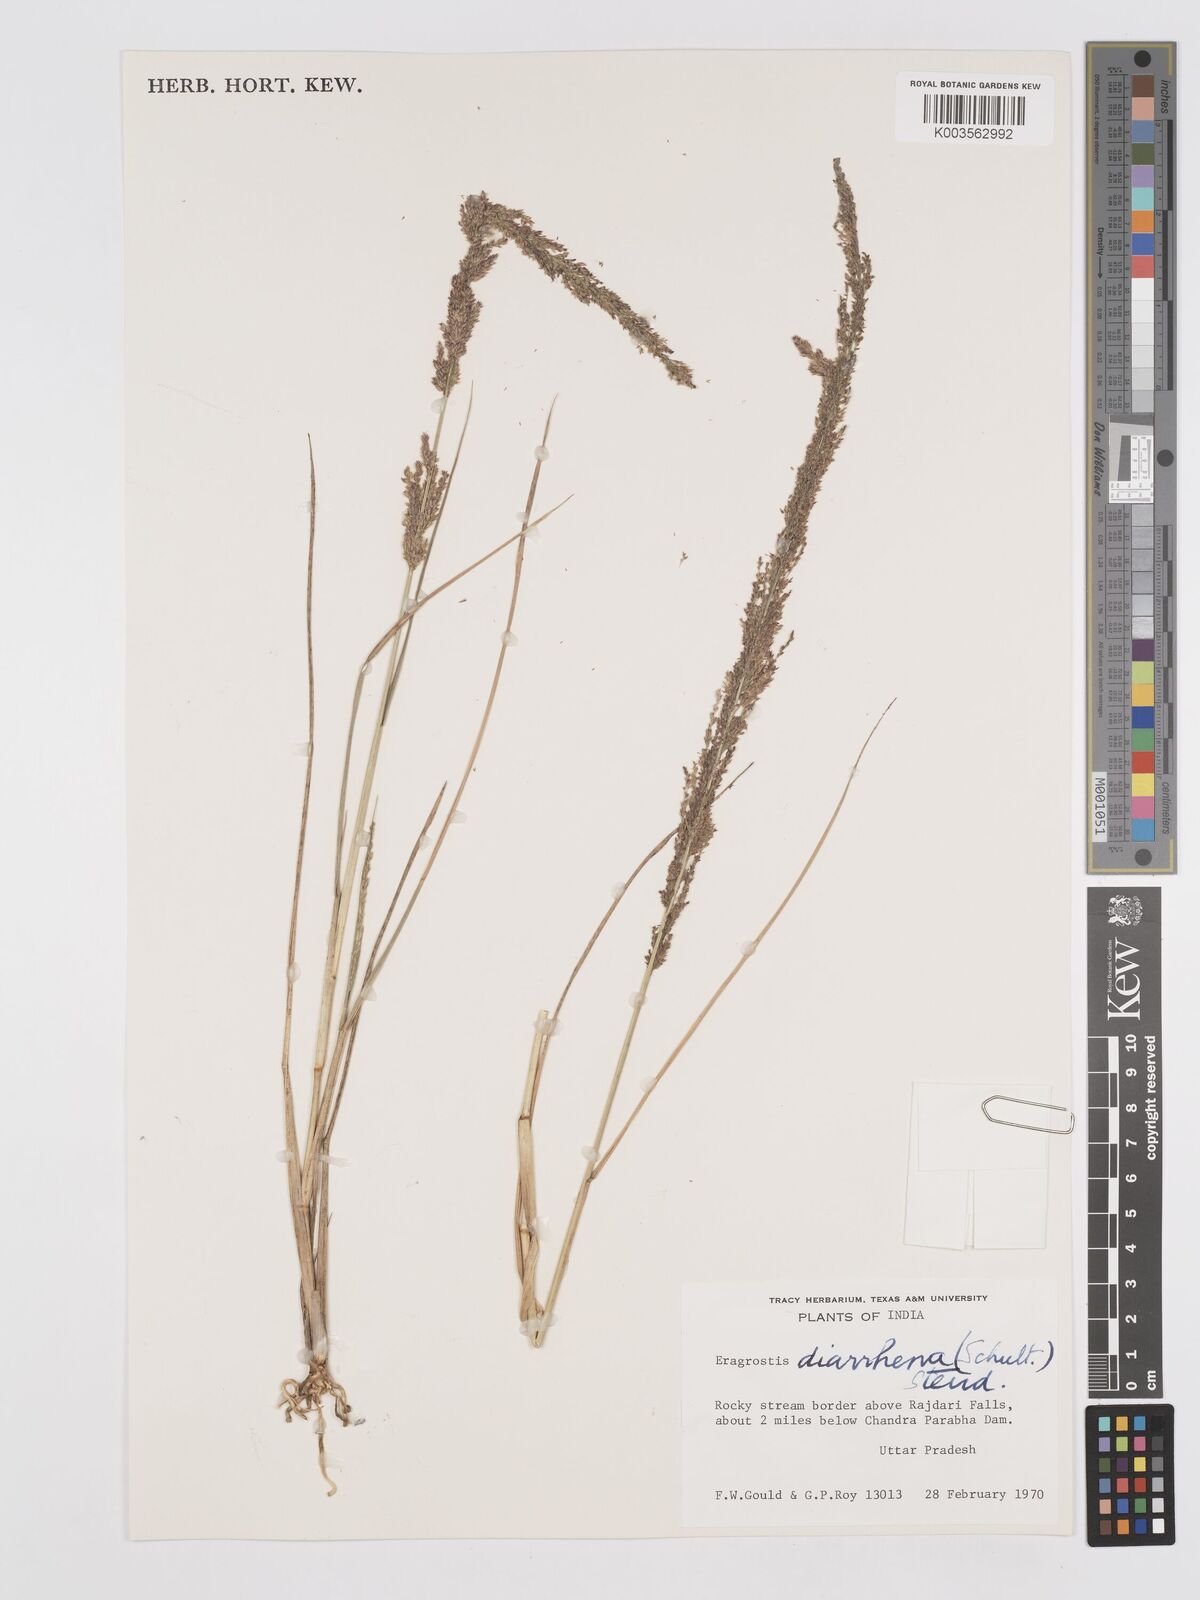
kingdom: Plantae
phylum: Tracheophyta
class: Liliopsida
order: Poales
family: Poaceae
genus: Eragrostis
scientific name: Eragrostis japonica
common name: Pond lovegrass
